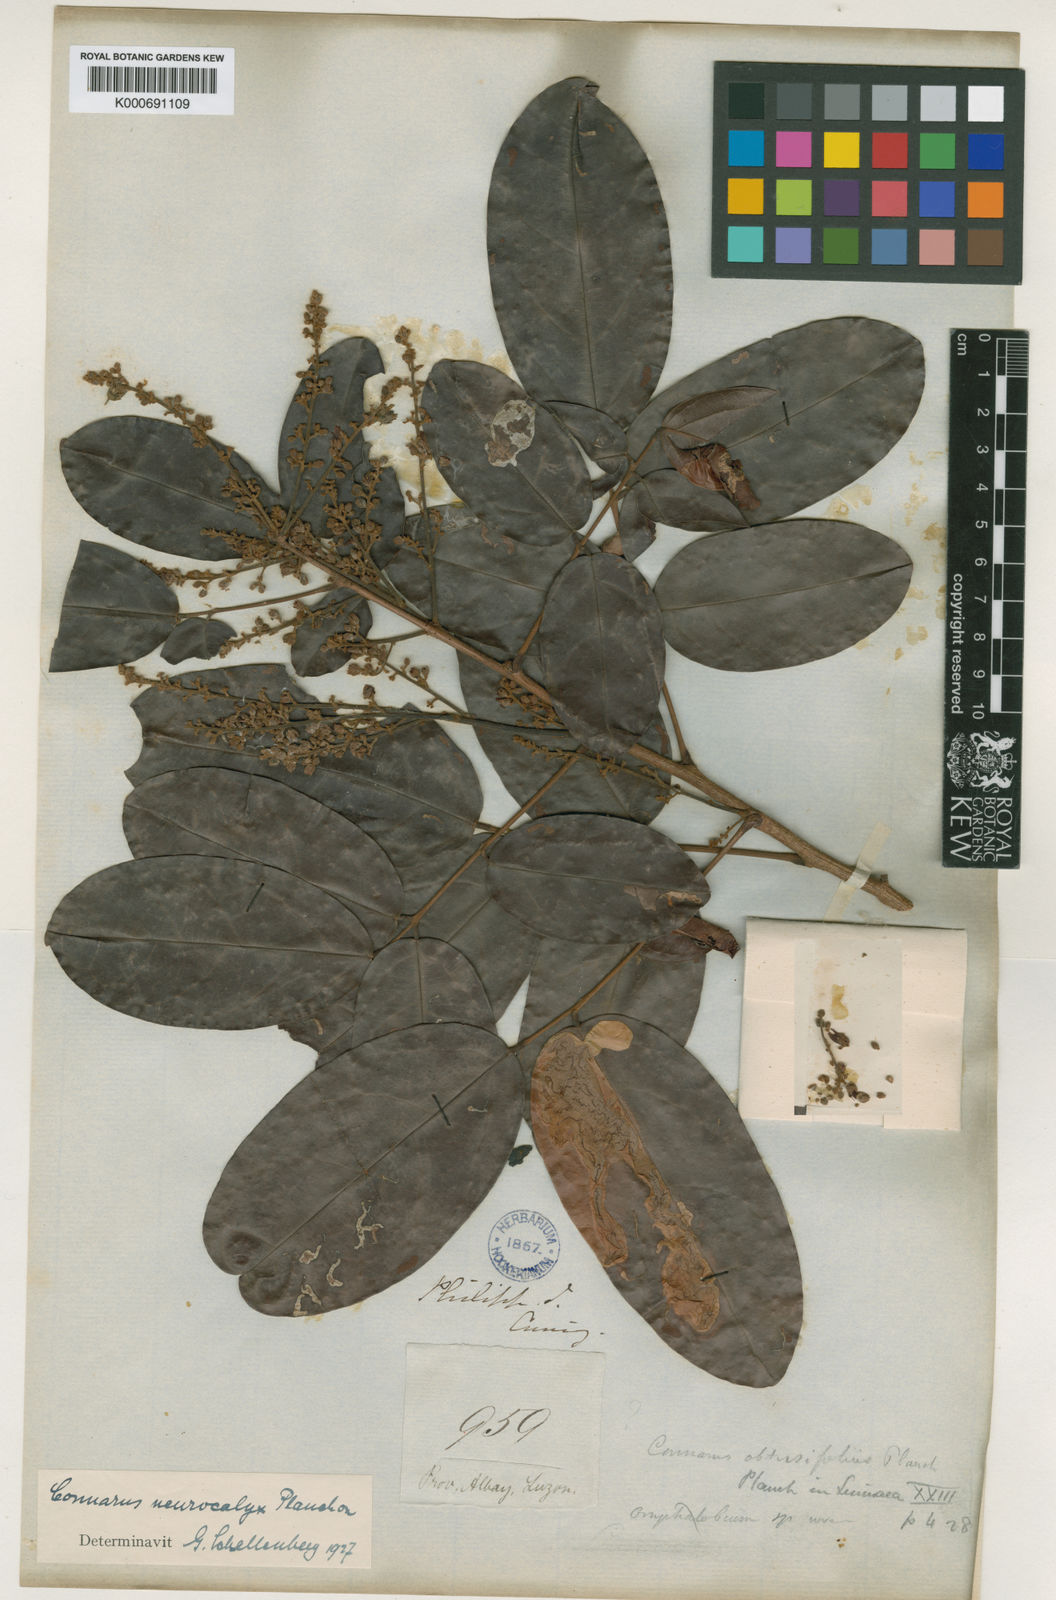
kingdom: Plantae
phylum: Tracheophyta
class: Magnoliopsida
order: Oxalidales
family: Connaraceae
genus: Connarus
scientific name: Connarus semidecandrus
